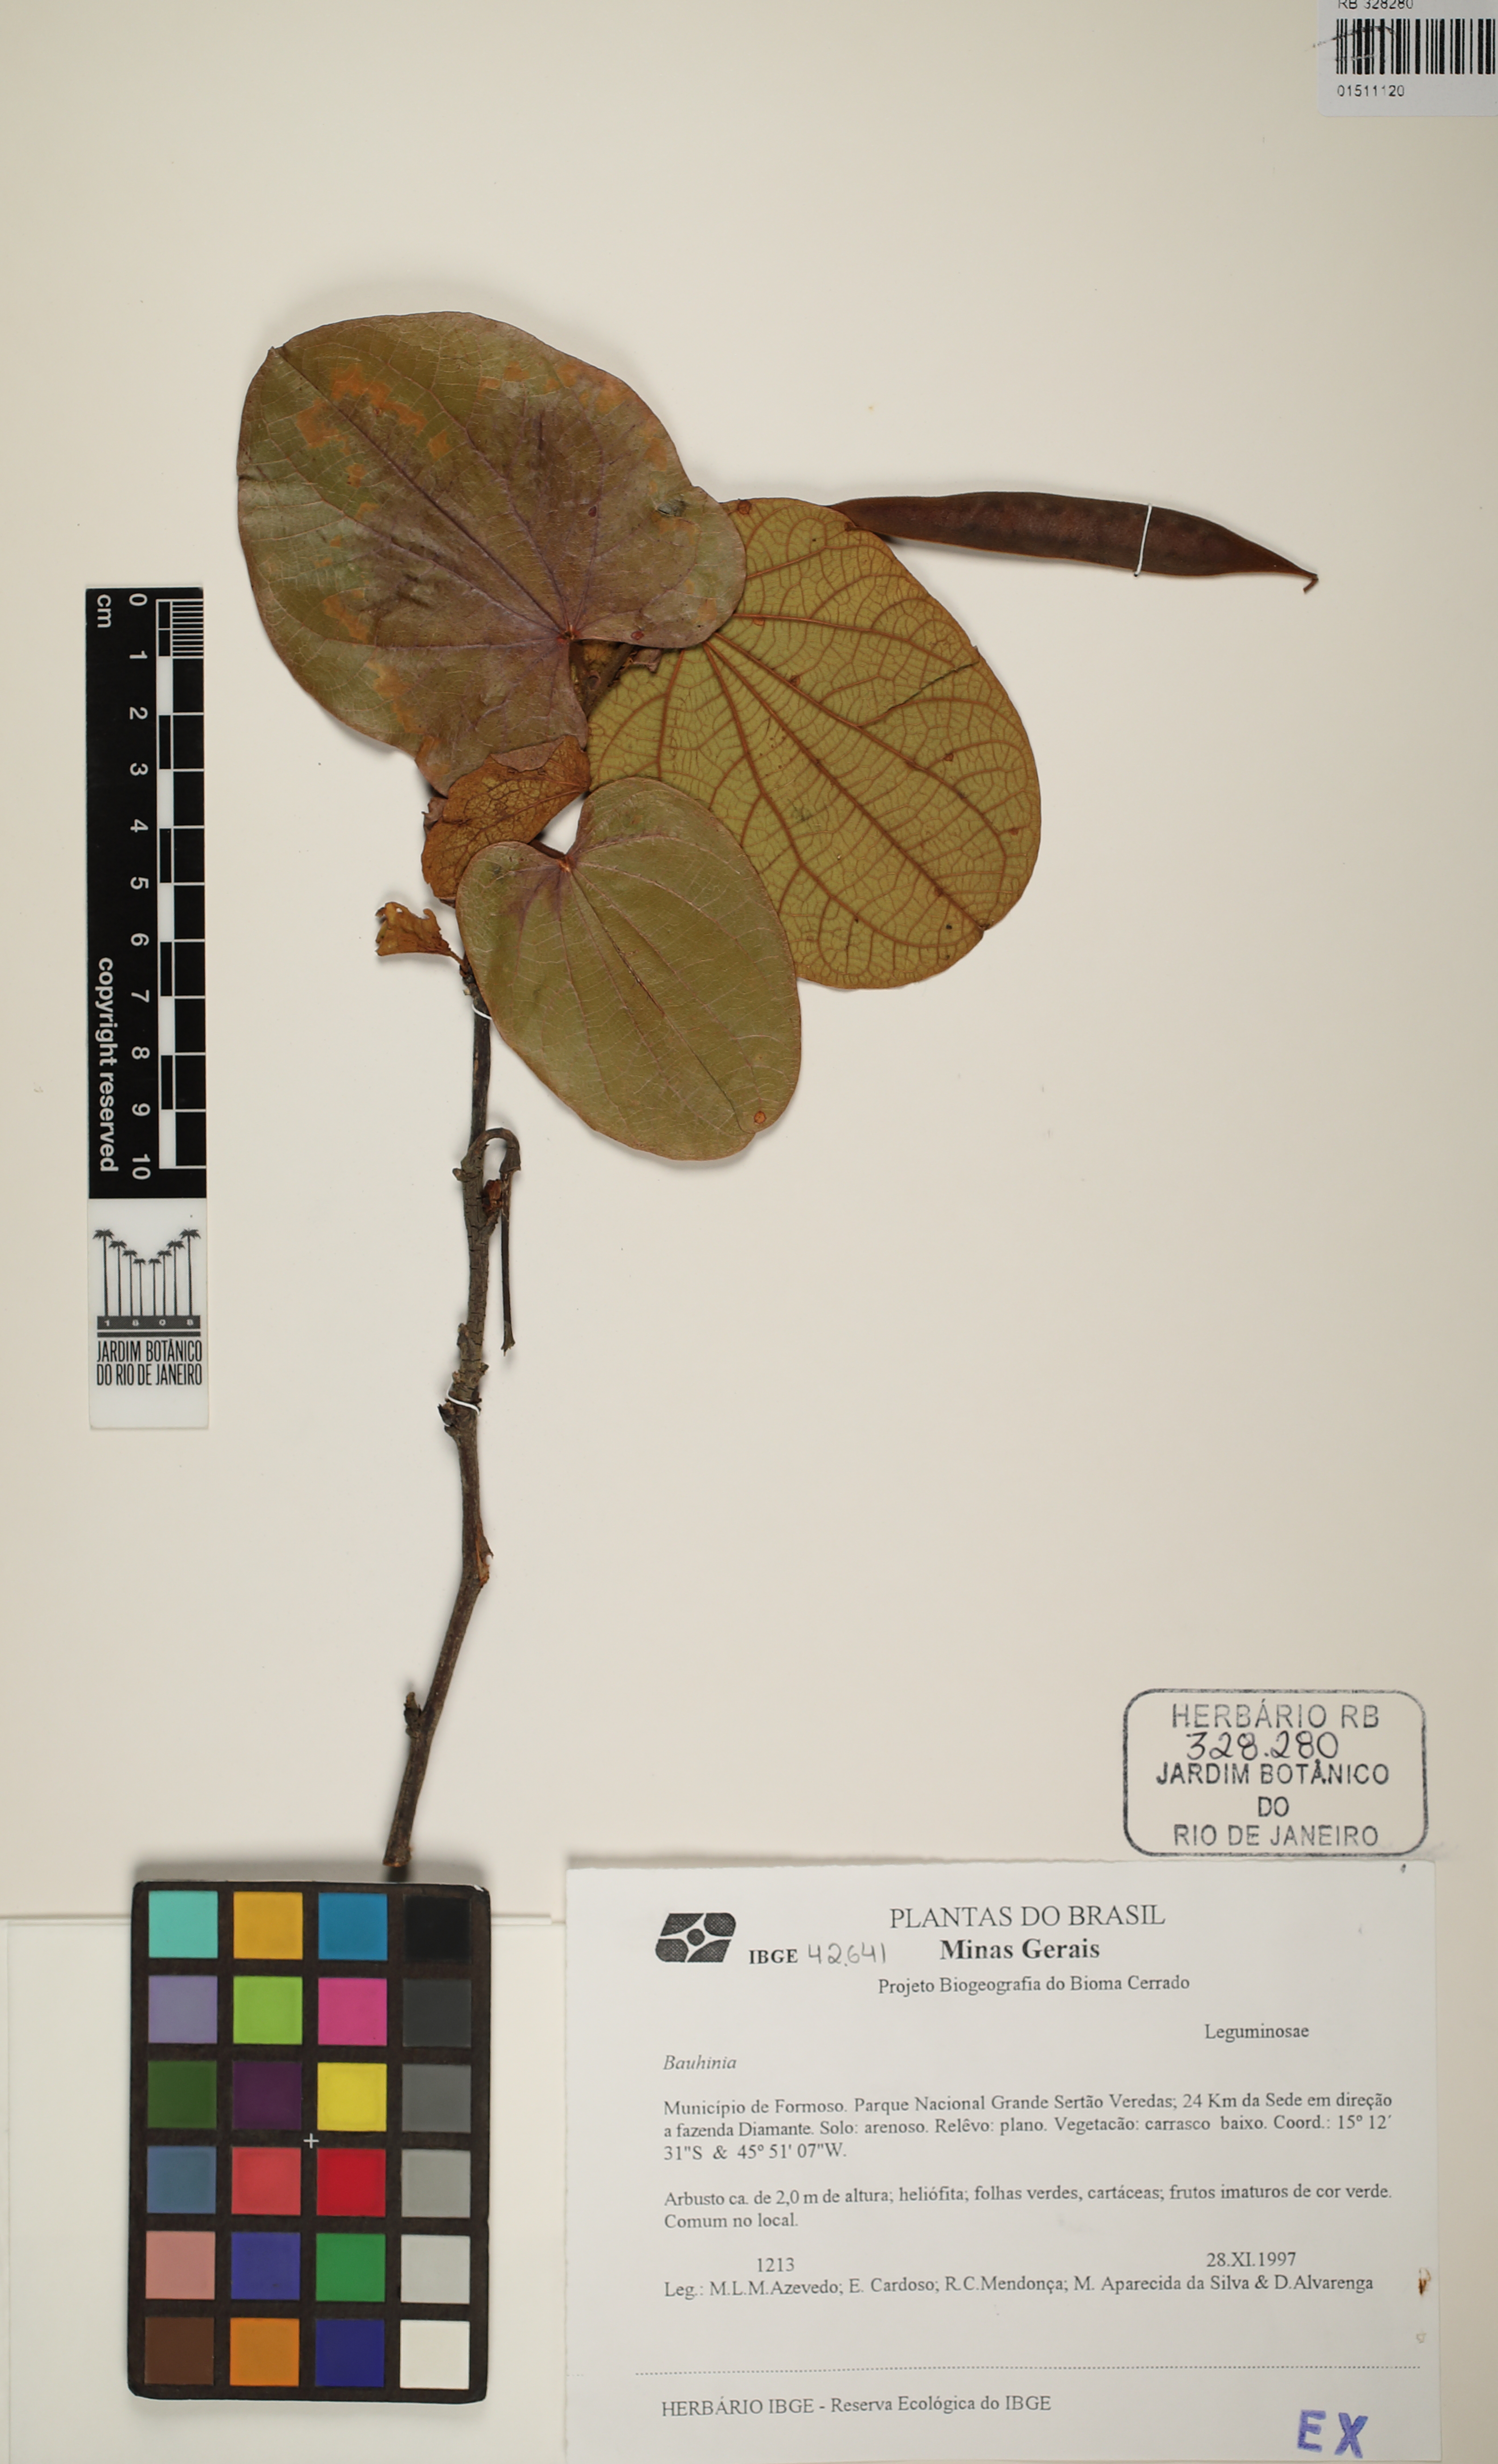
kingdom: Plantae
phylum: Tracheophyta
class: Magnoliopsida
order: Fabales
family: Fabaceae
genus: Bauhinia
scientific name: Bauhinia
